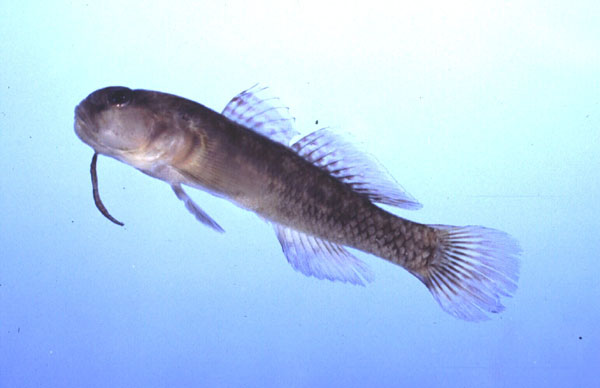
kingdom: Animalia
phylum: Chordata
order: Perciformes
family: Gobiidae
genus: Caffrogobius
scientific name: Caffrogobius nudiceps
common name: Barehead goby
